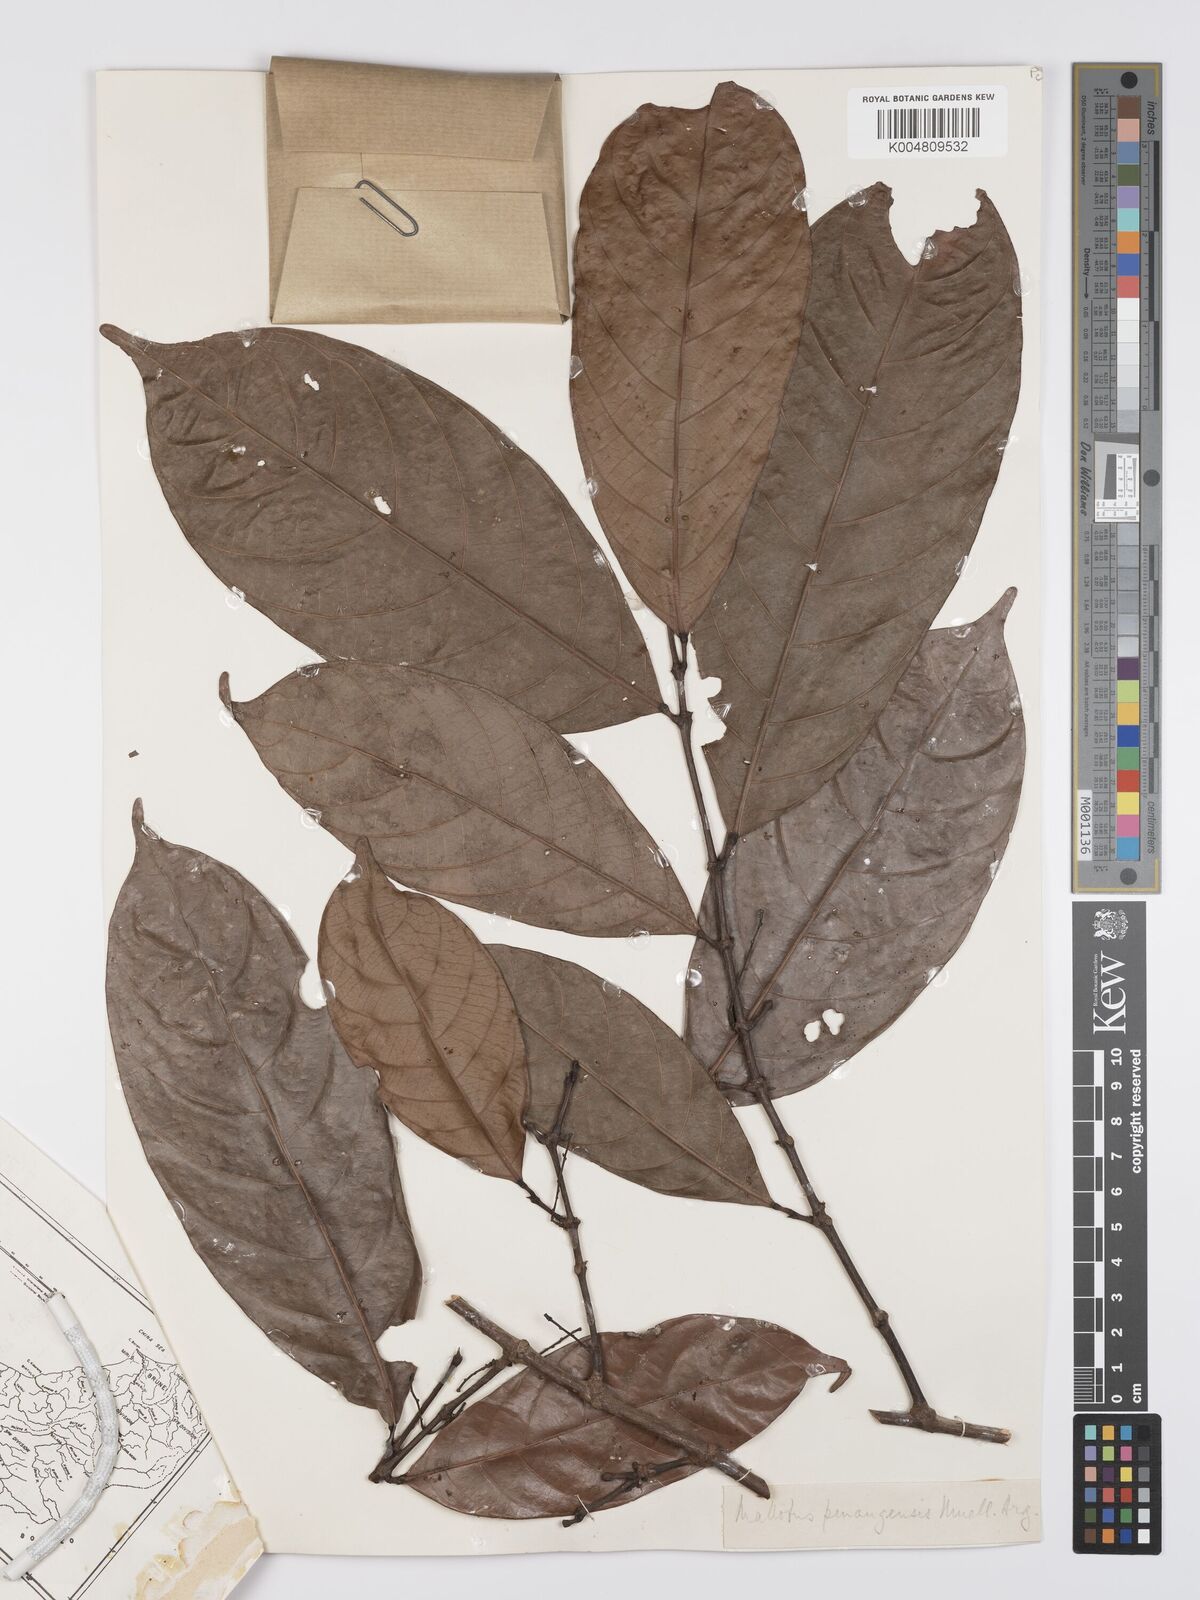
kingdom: Plantae
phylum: Tracheophyta
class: Magnoliopsida
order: Malpighiales
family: Euphorbiaceae
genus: Hancea
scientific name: Hancea penangensis
